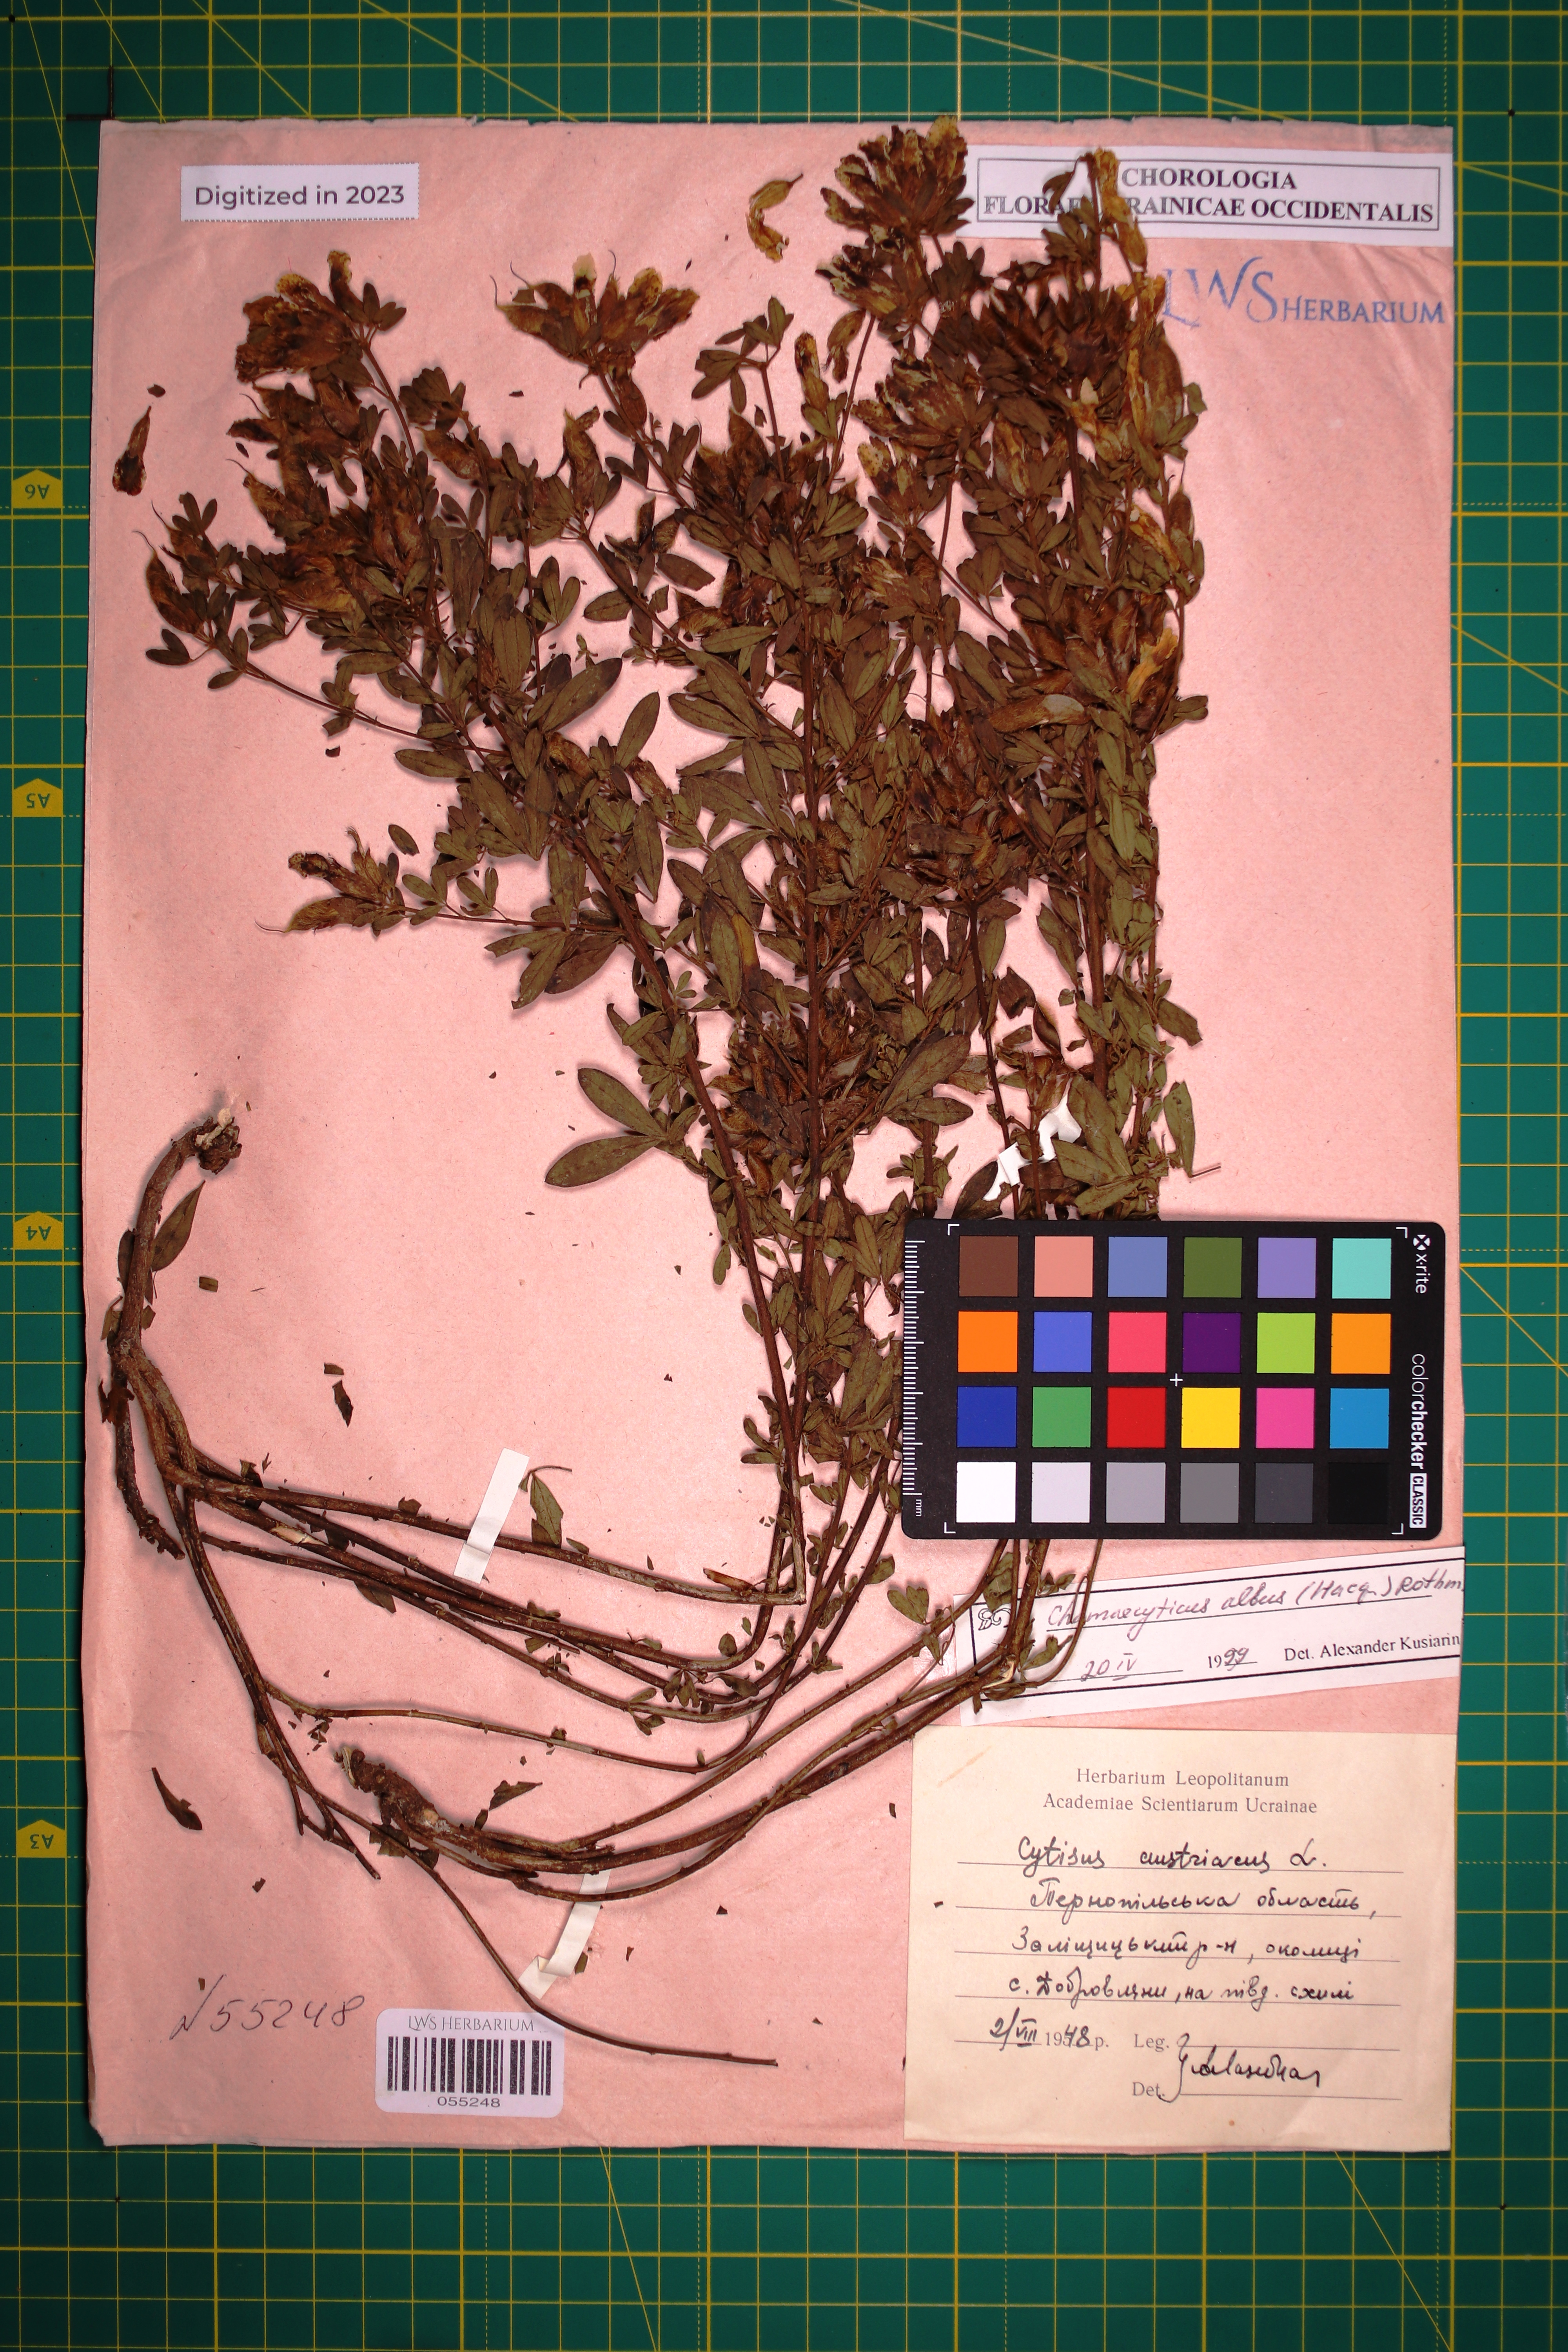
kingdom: Plantae
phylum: Tracheophyta
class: Magnoliopsida
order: Fabales
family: Fabaceae
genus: Chamaecytisus
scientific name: Chamaecytisus albus
